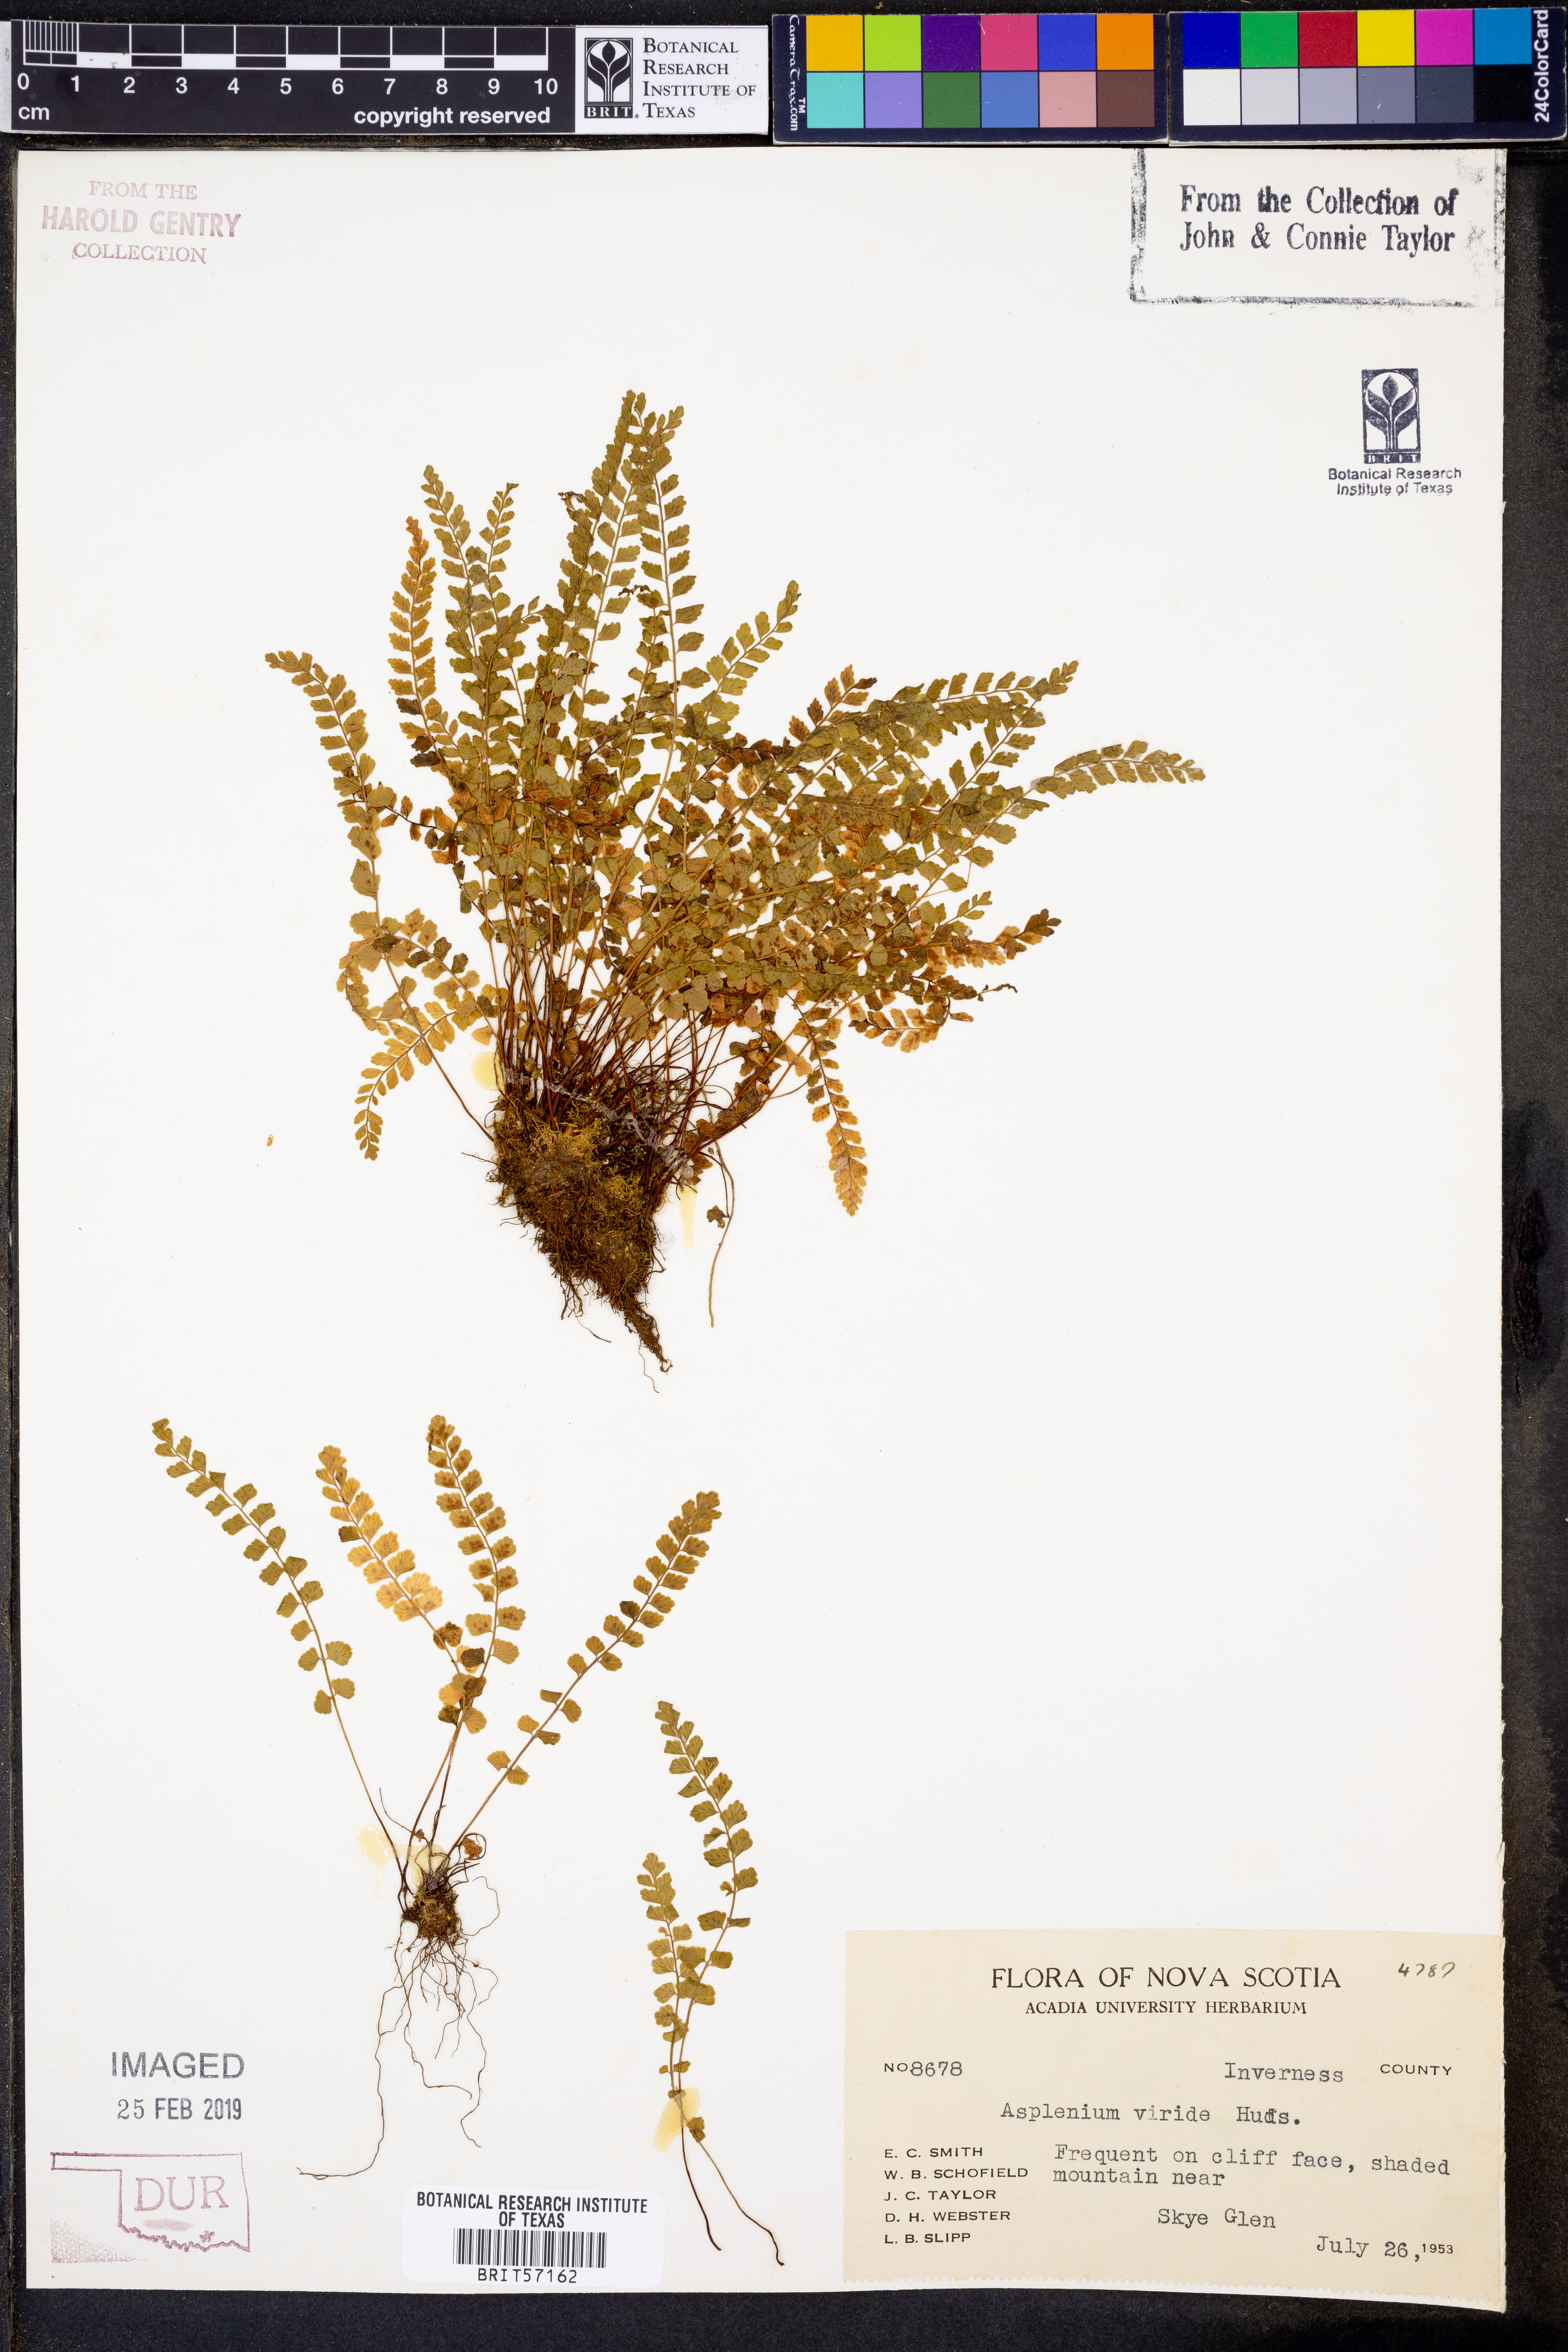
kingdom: Plantae
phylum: Tracheophyta
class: Polypodiopsida
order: Polypodiales
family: Aspleniaceae
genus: Asplenium
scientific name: Asplenium viride
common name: Green spleenwort
